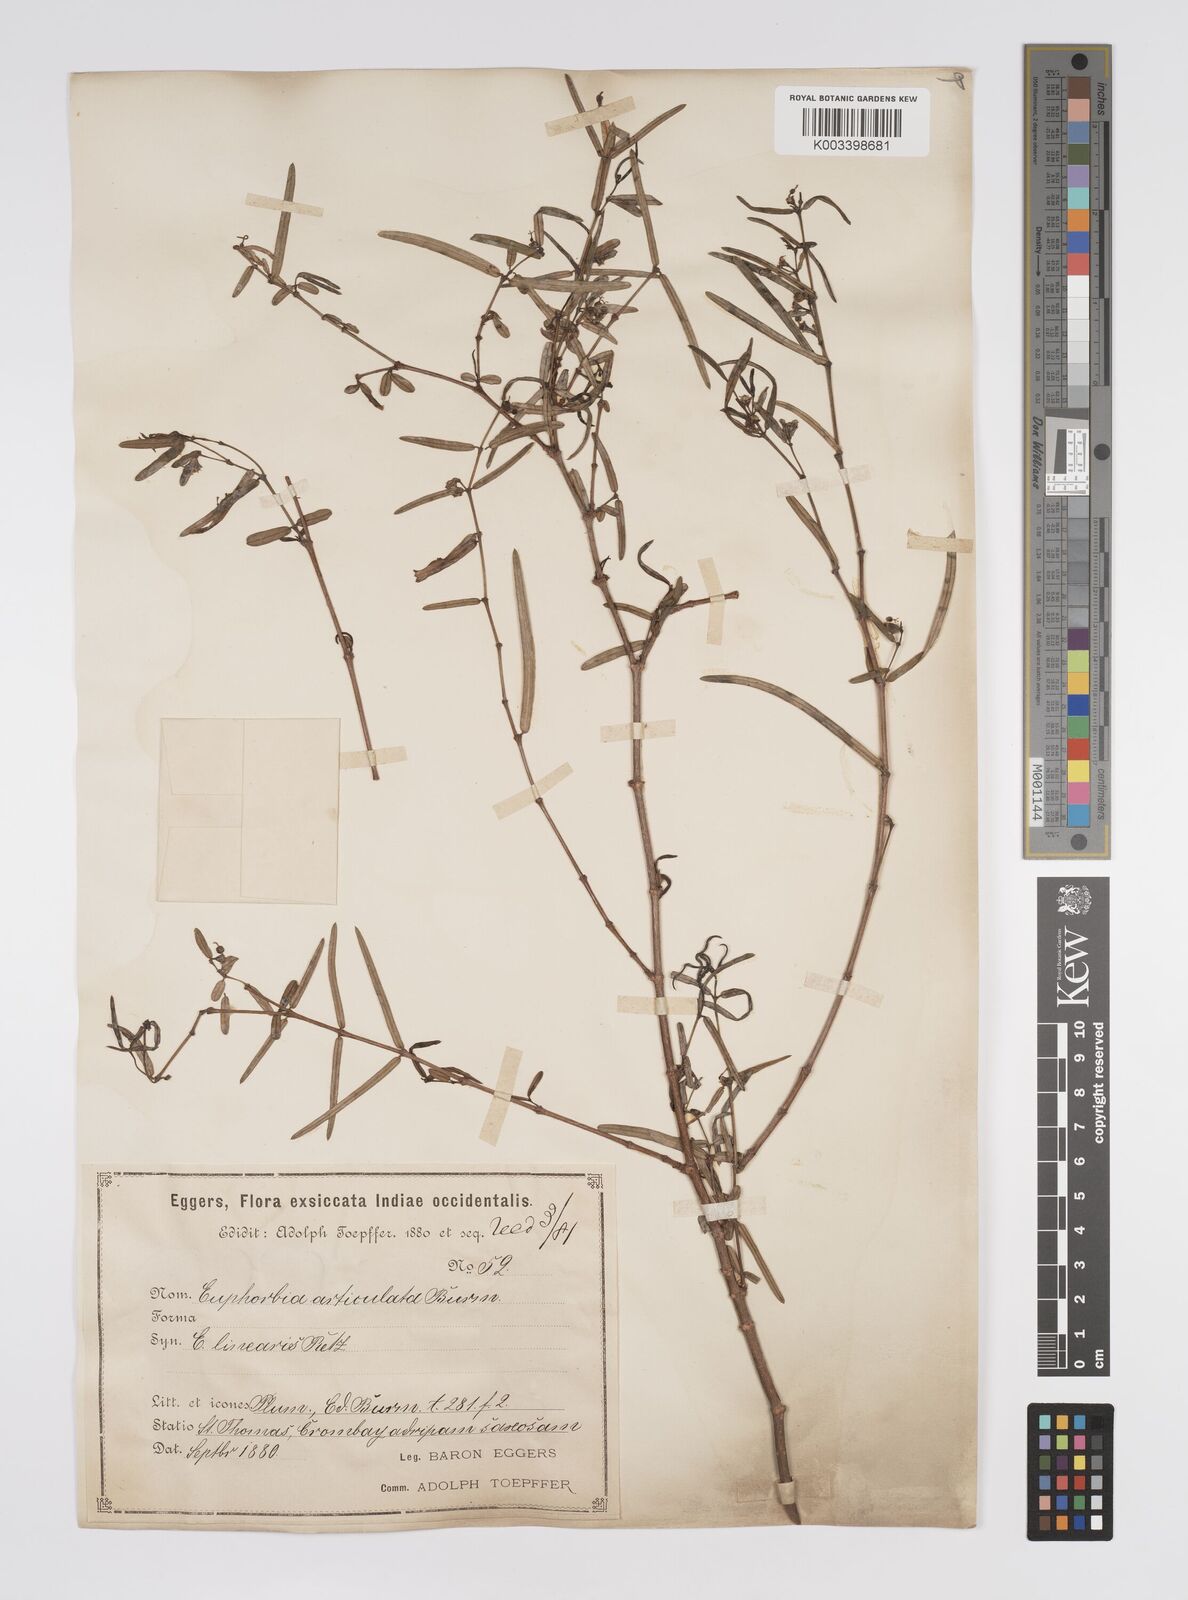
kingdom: Plantae
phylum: Tracheophyta
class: Magnoliopsida
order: Malpighiales
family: Euphorbiaceae
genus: Euphorbia
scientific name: Euphorbia articulata
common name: Jointed sandmat
